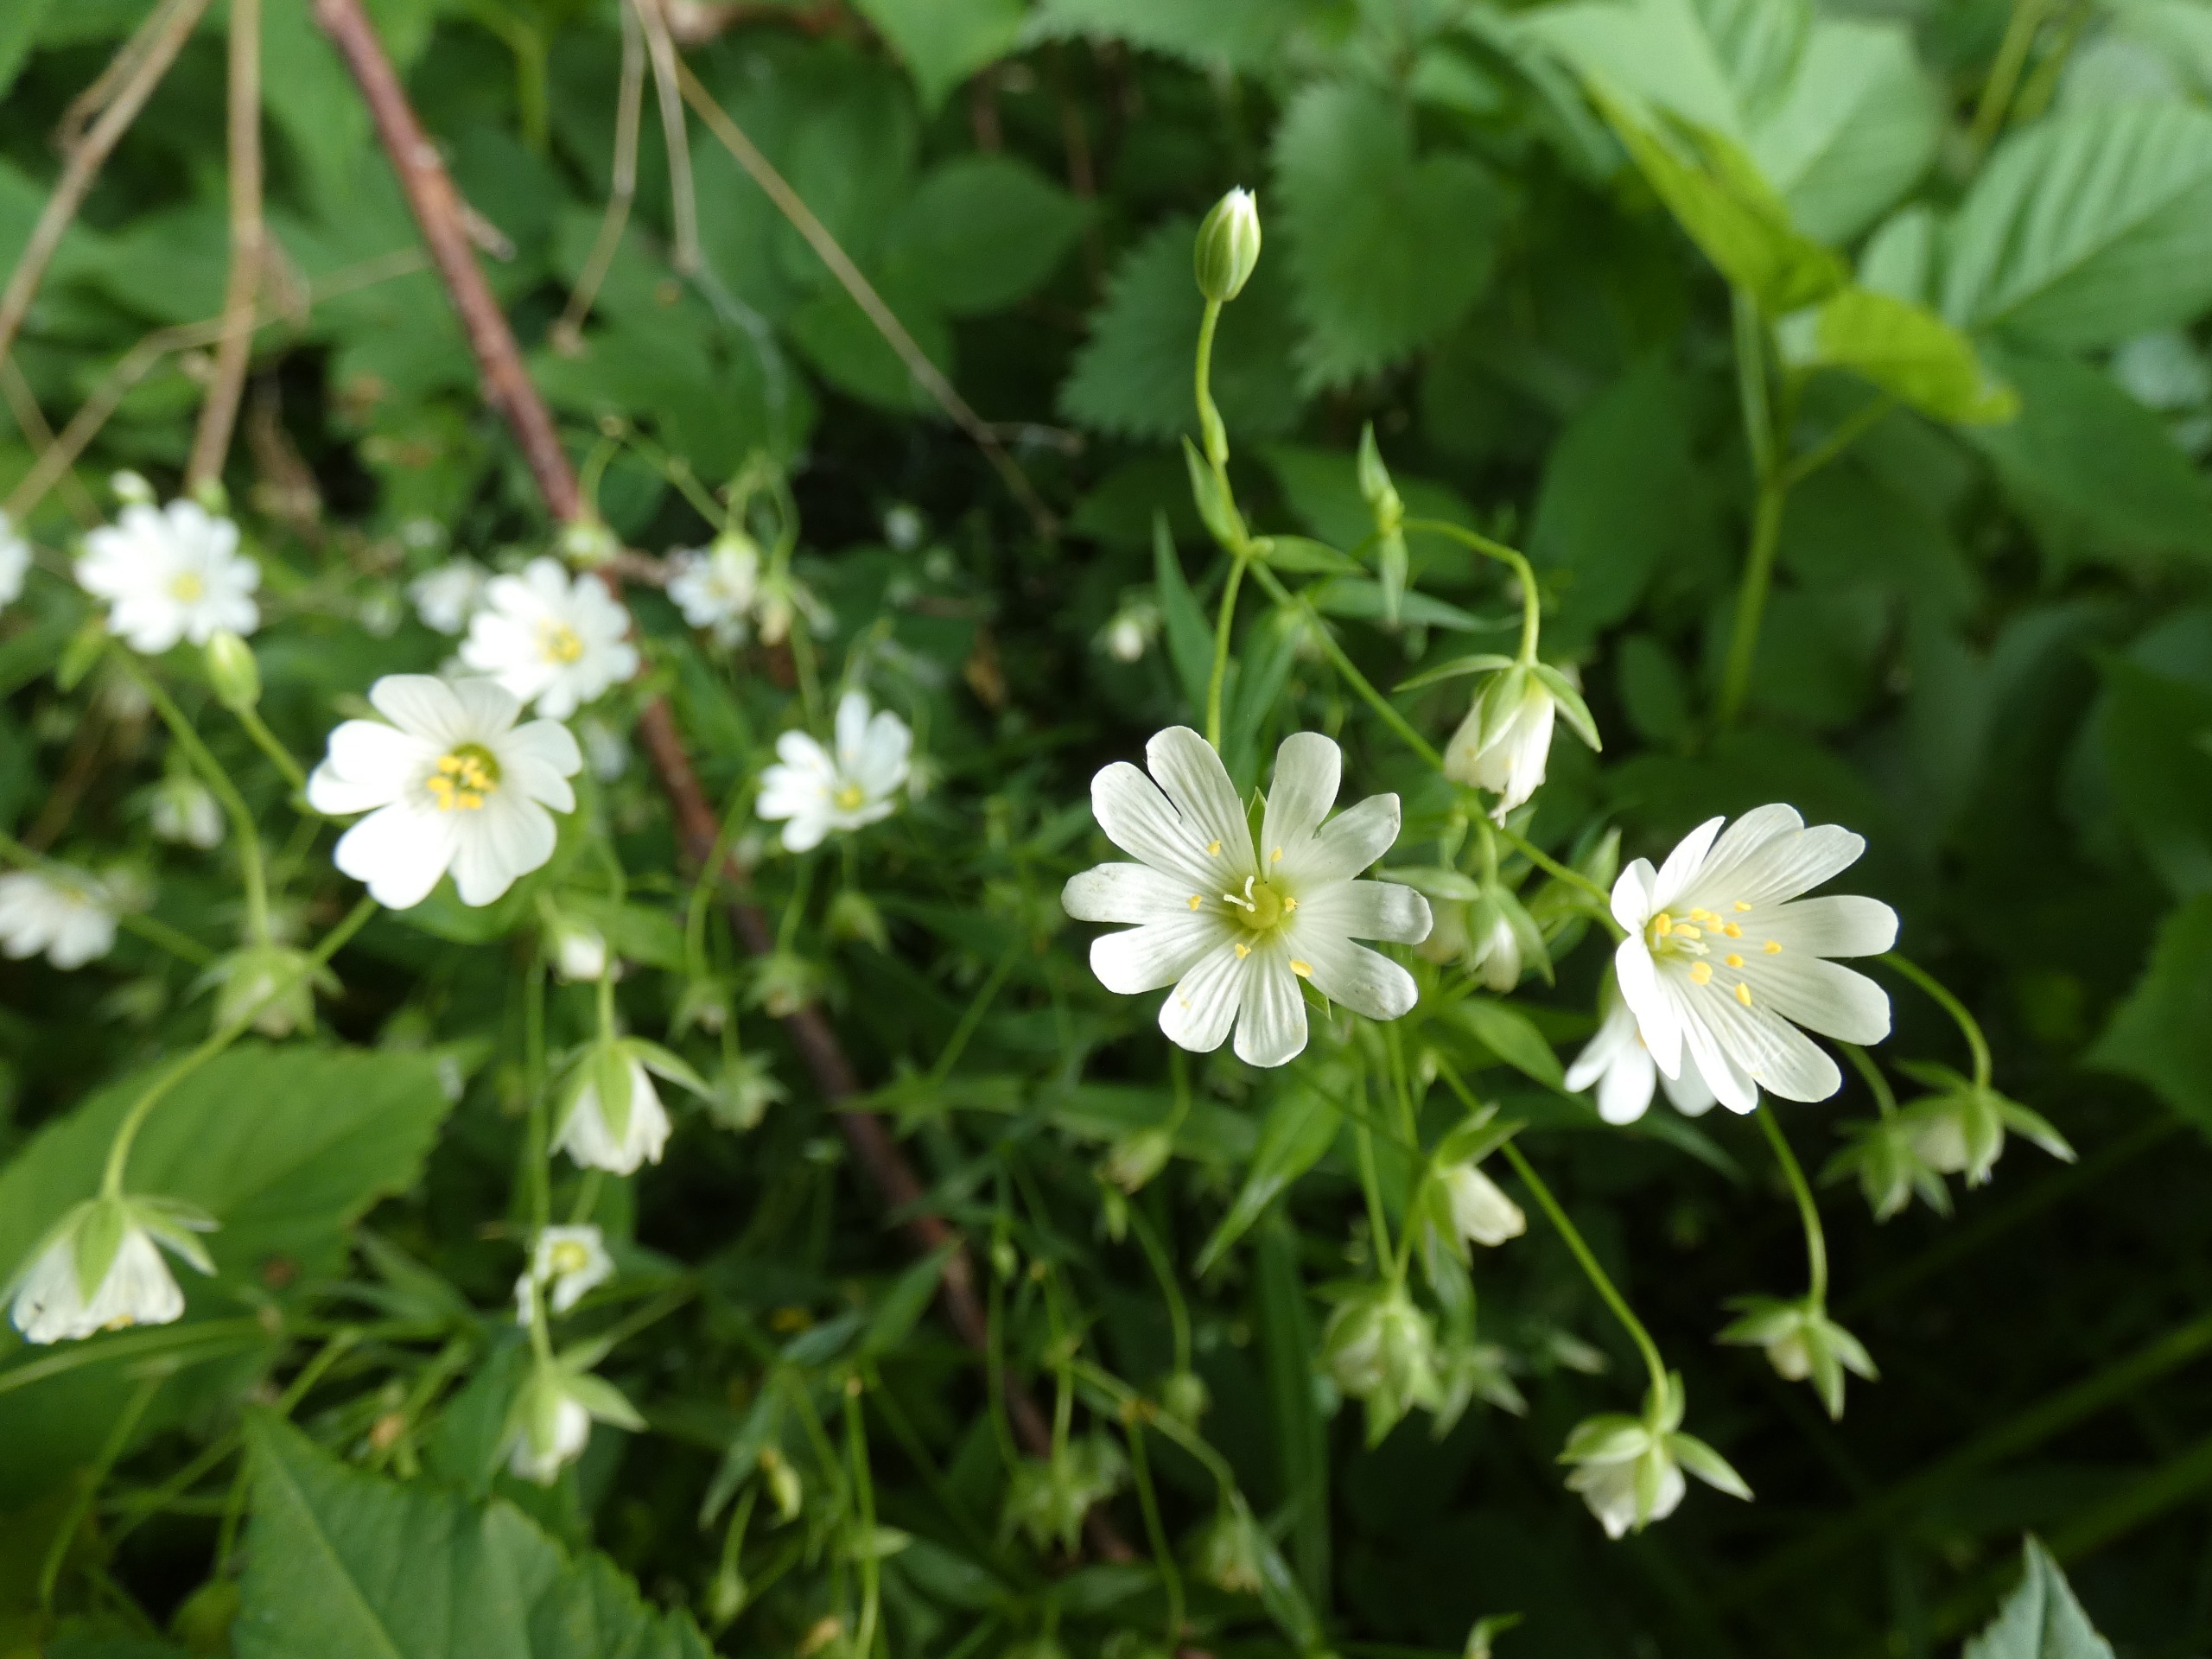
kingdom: Plantae
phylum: Tracheophyta
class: Magnoliopsida
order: Caryophyllales
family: Caryophyllaceae
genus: Rabelera
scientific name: Rabelera holostea
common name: Stor fladstjerne
